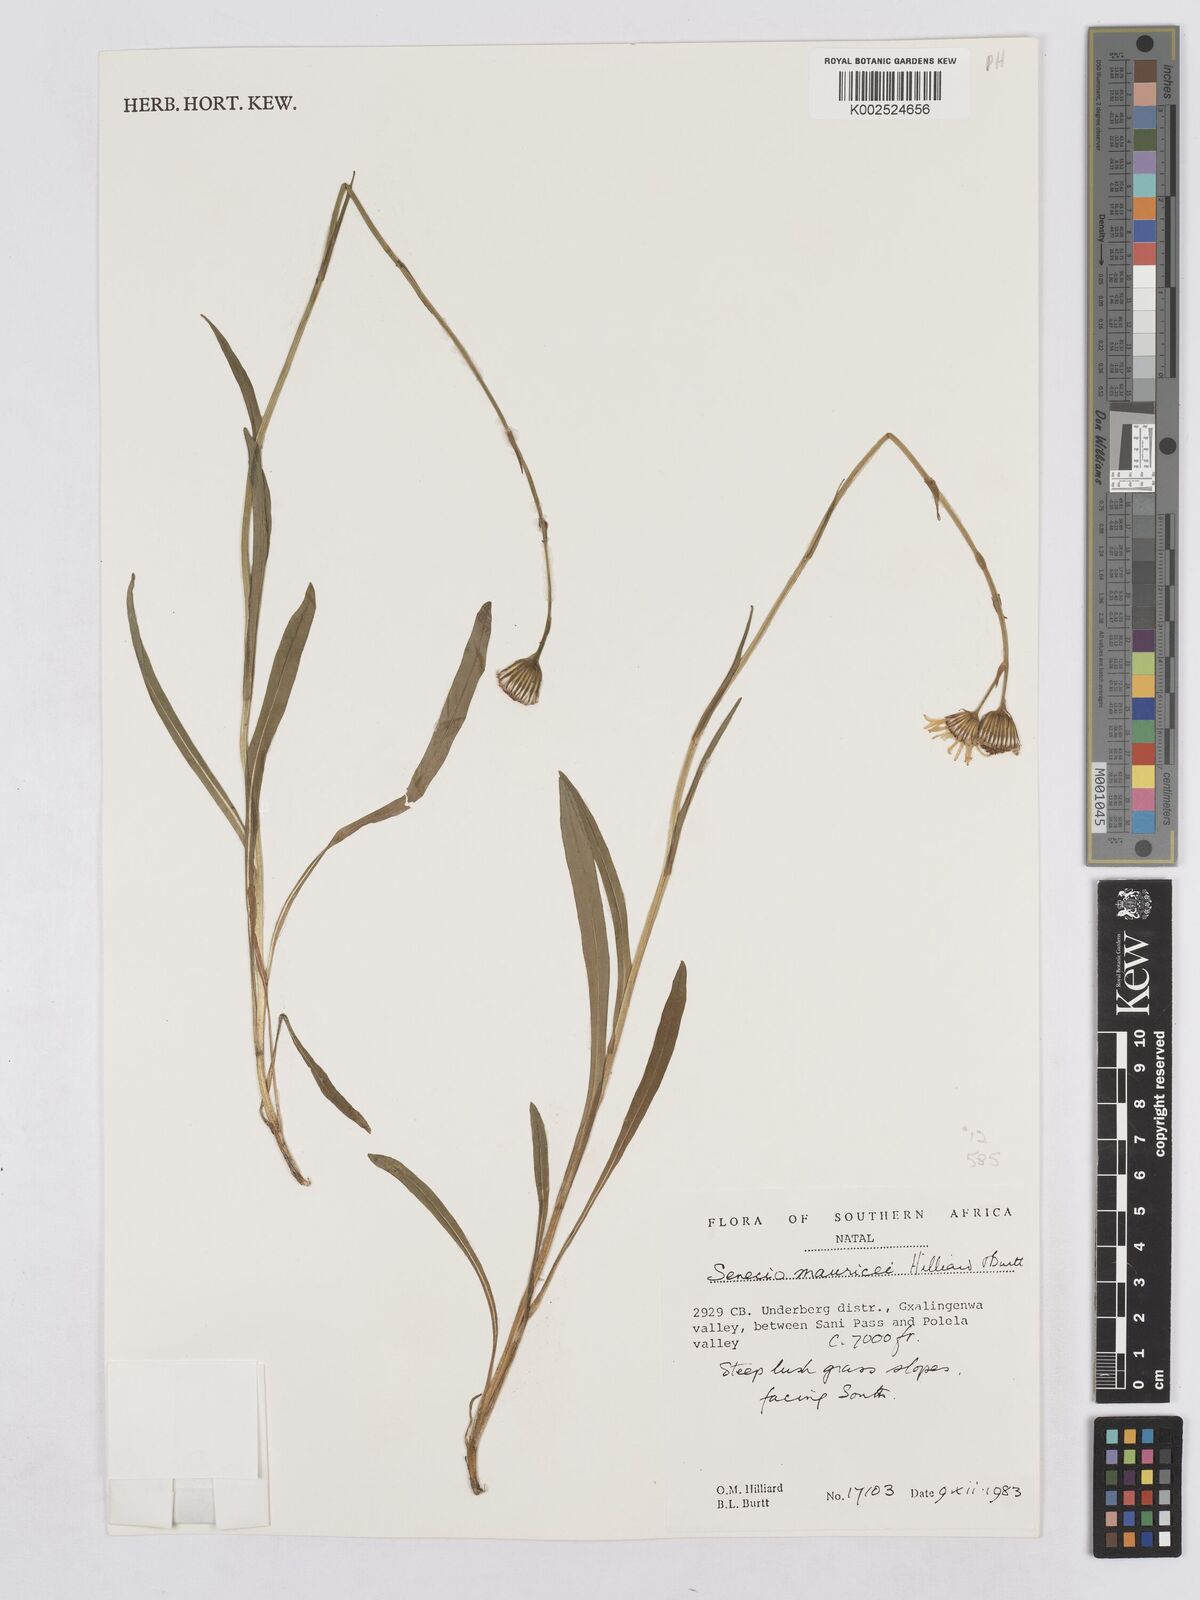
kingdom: Plantae
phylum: Tracheophyta
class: Magnoliopsida
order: Asterales
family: Asteraceae
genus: Senecio
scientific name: Senecio mauricei
